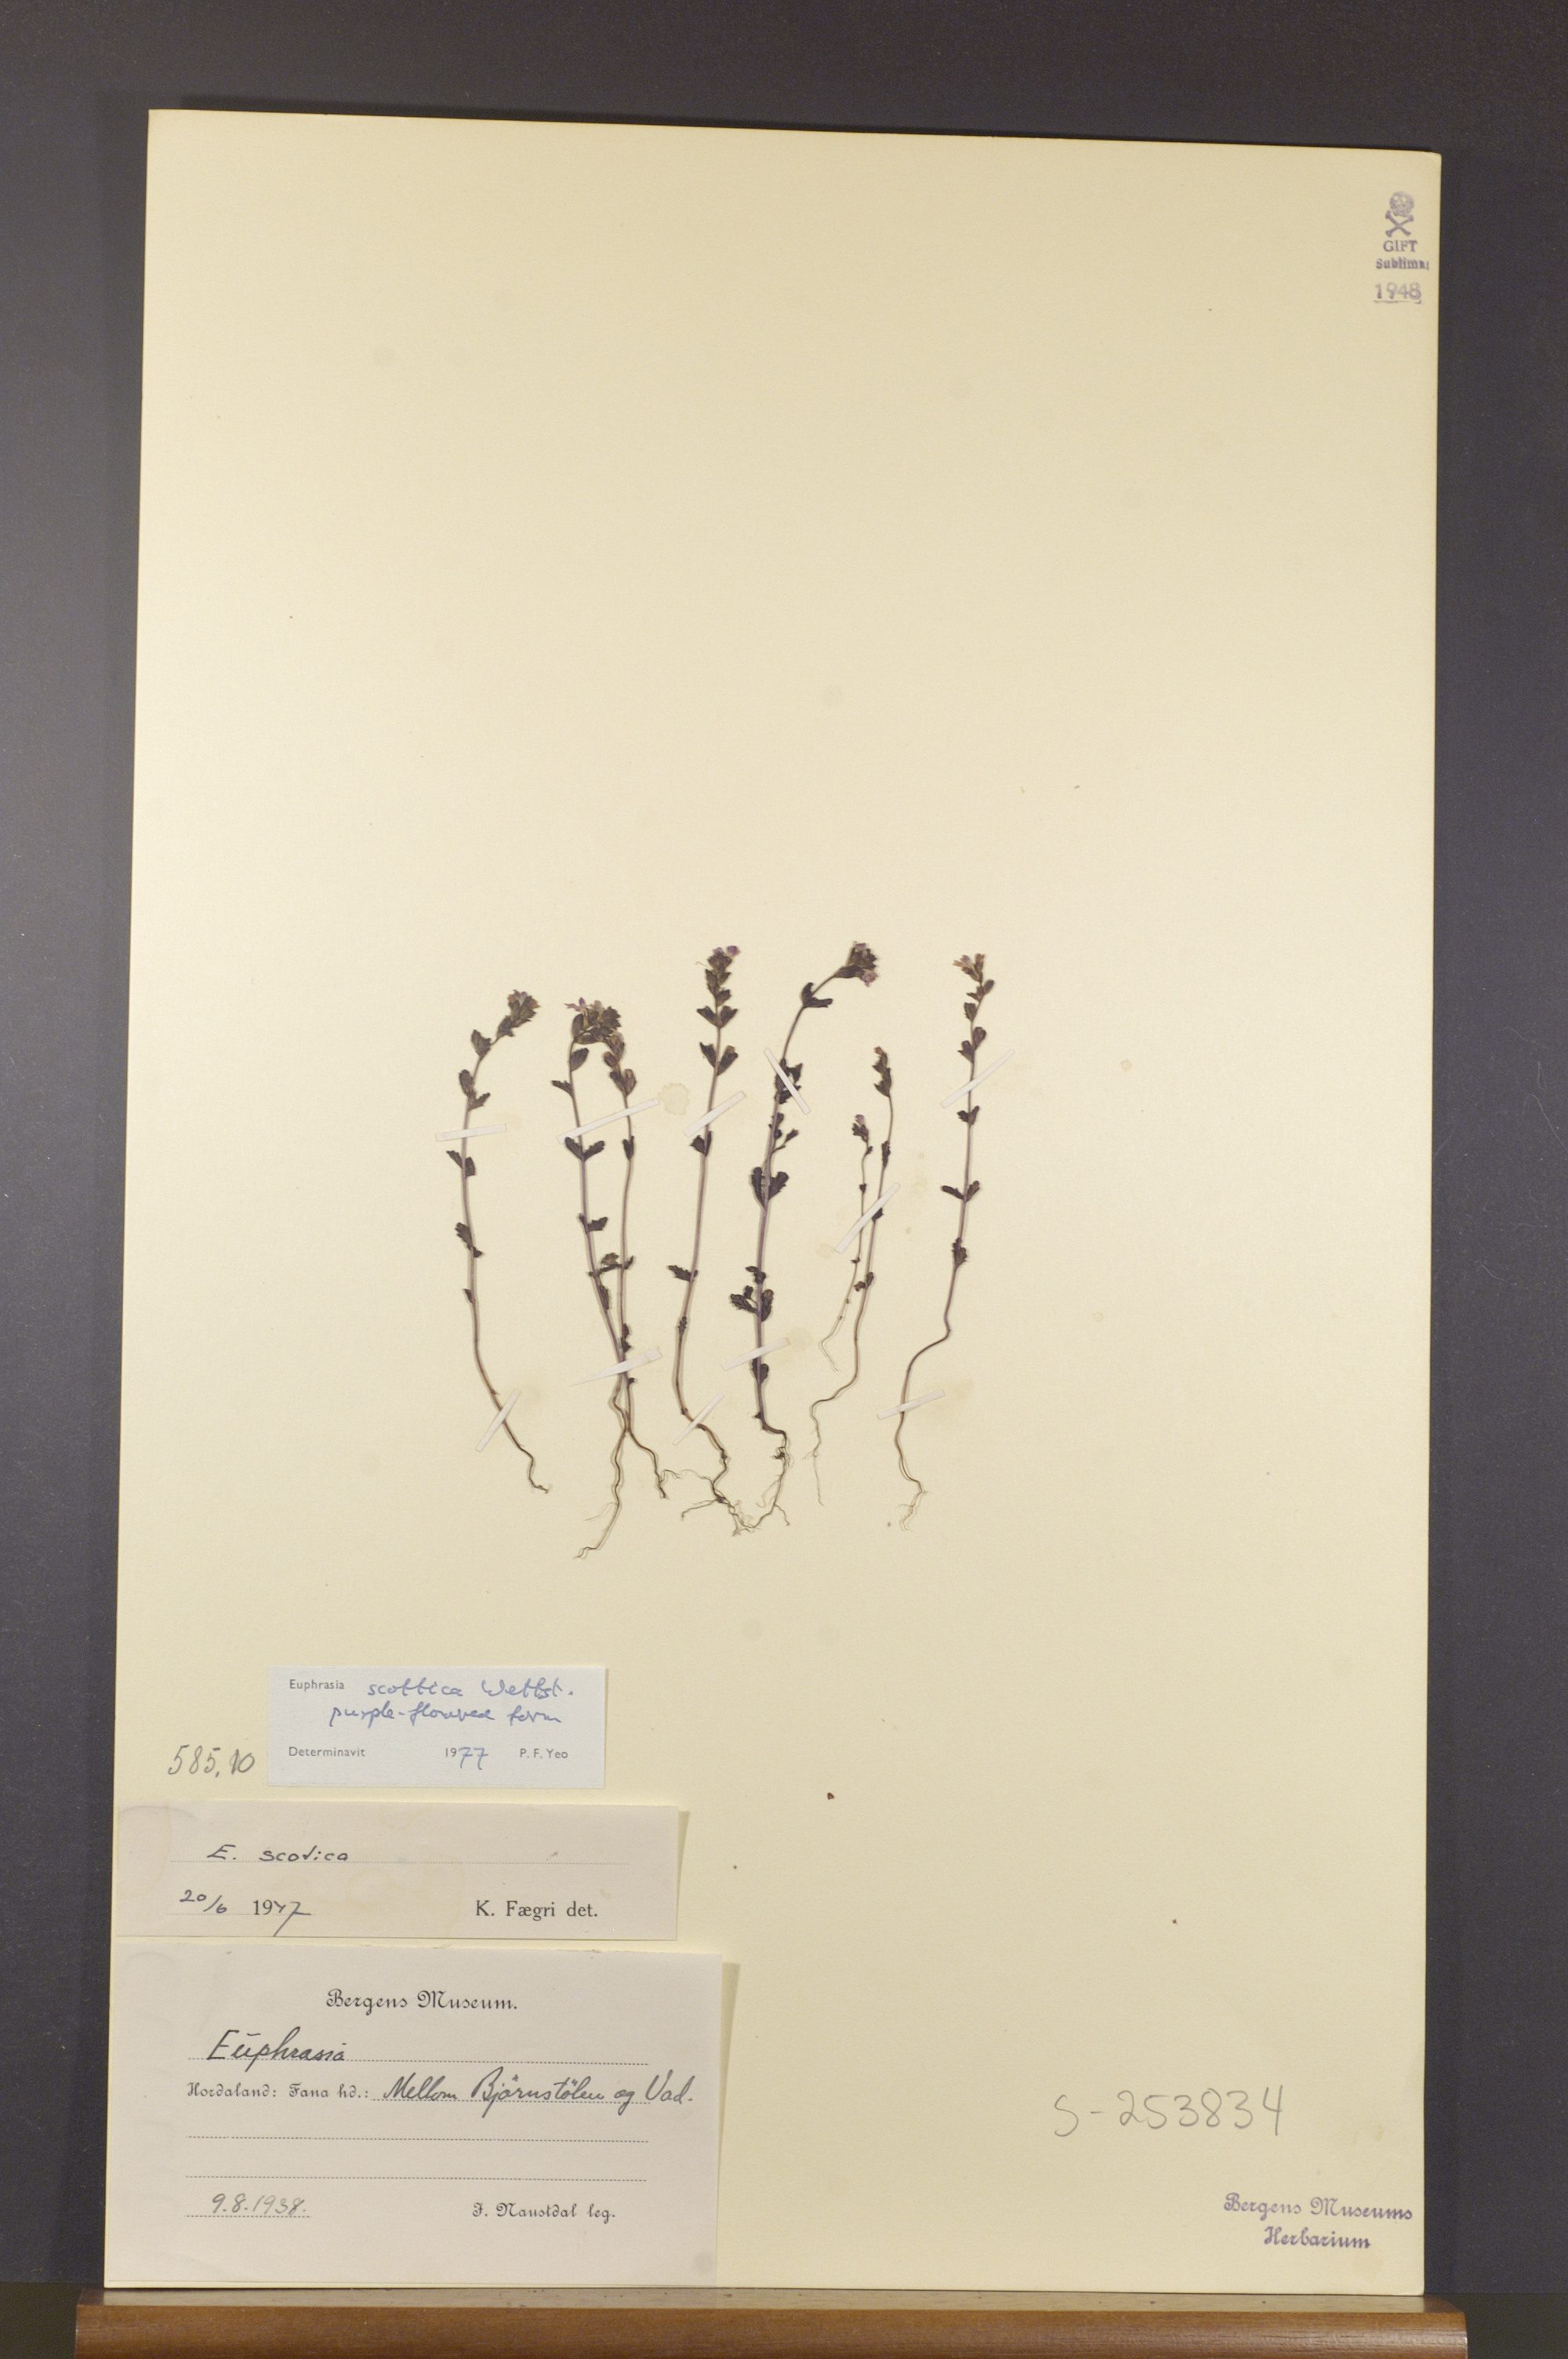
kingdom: Plantae
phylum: Tracheophyta
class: Magnoliopsida
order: Lamiales
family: Orobanchaceae
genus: Euphrasia
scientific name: Euphrasia scottica
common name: Slender scottish eyebright
